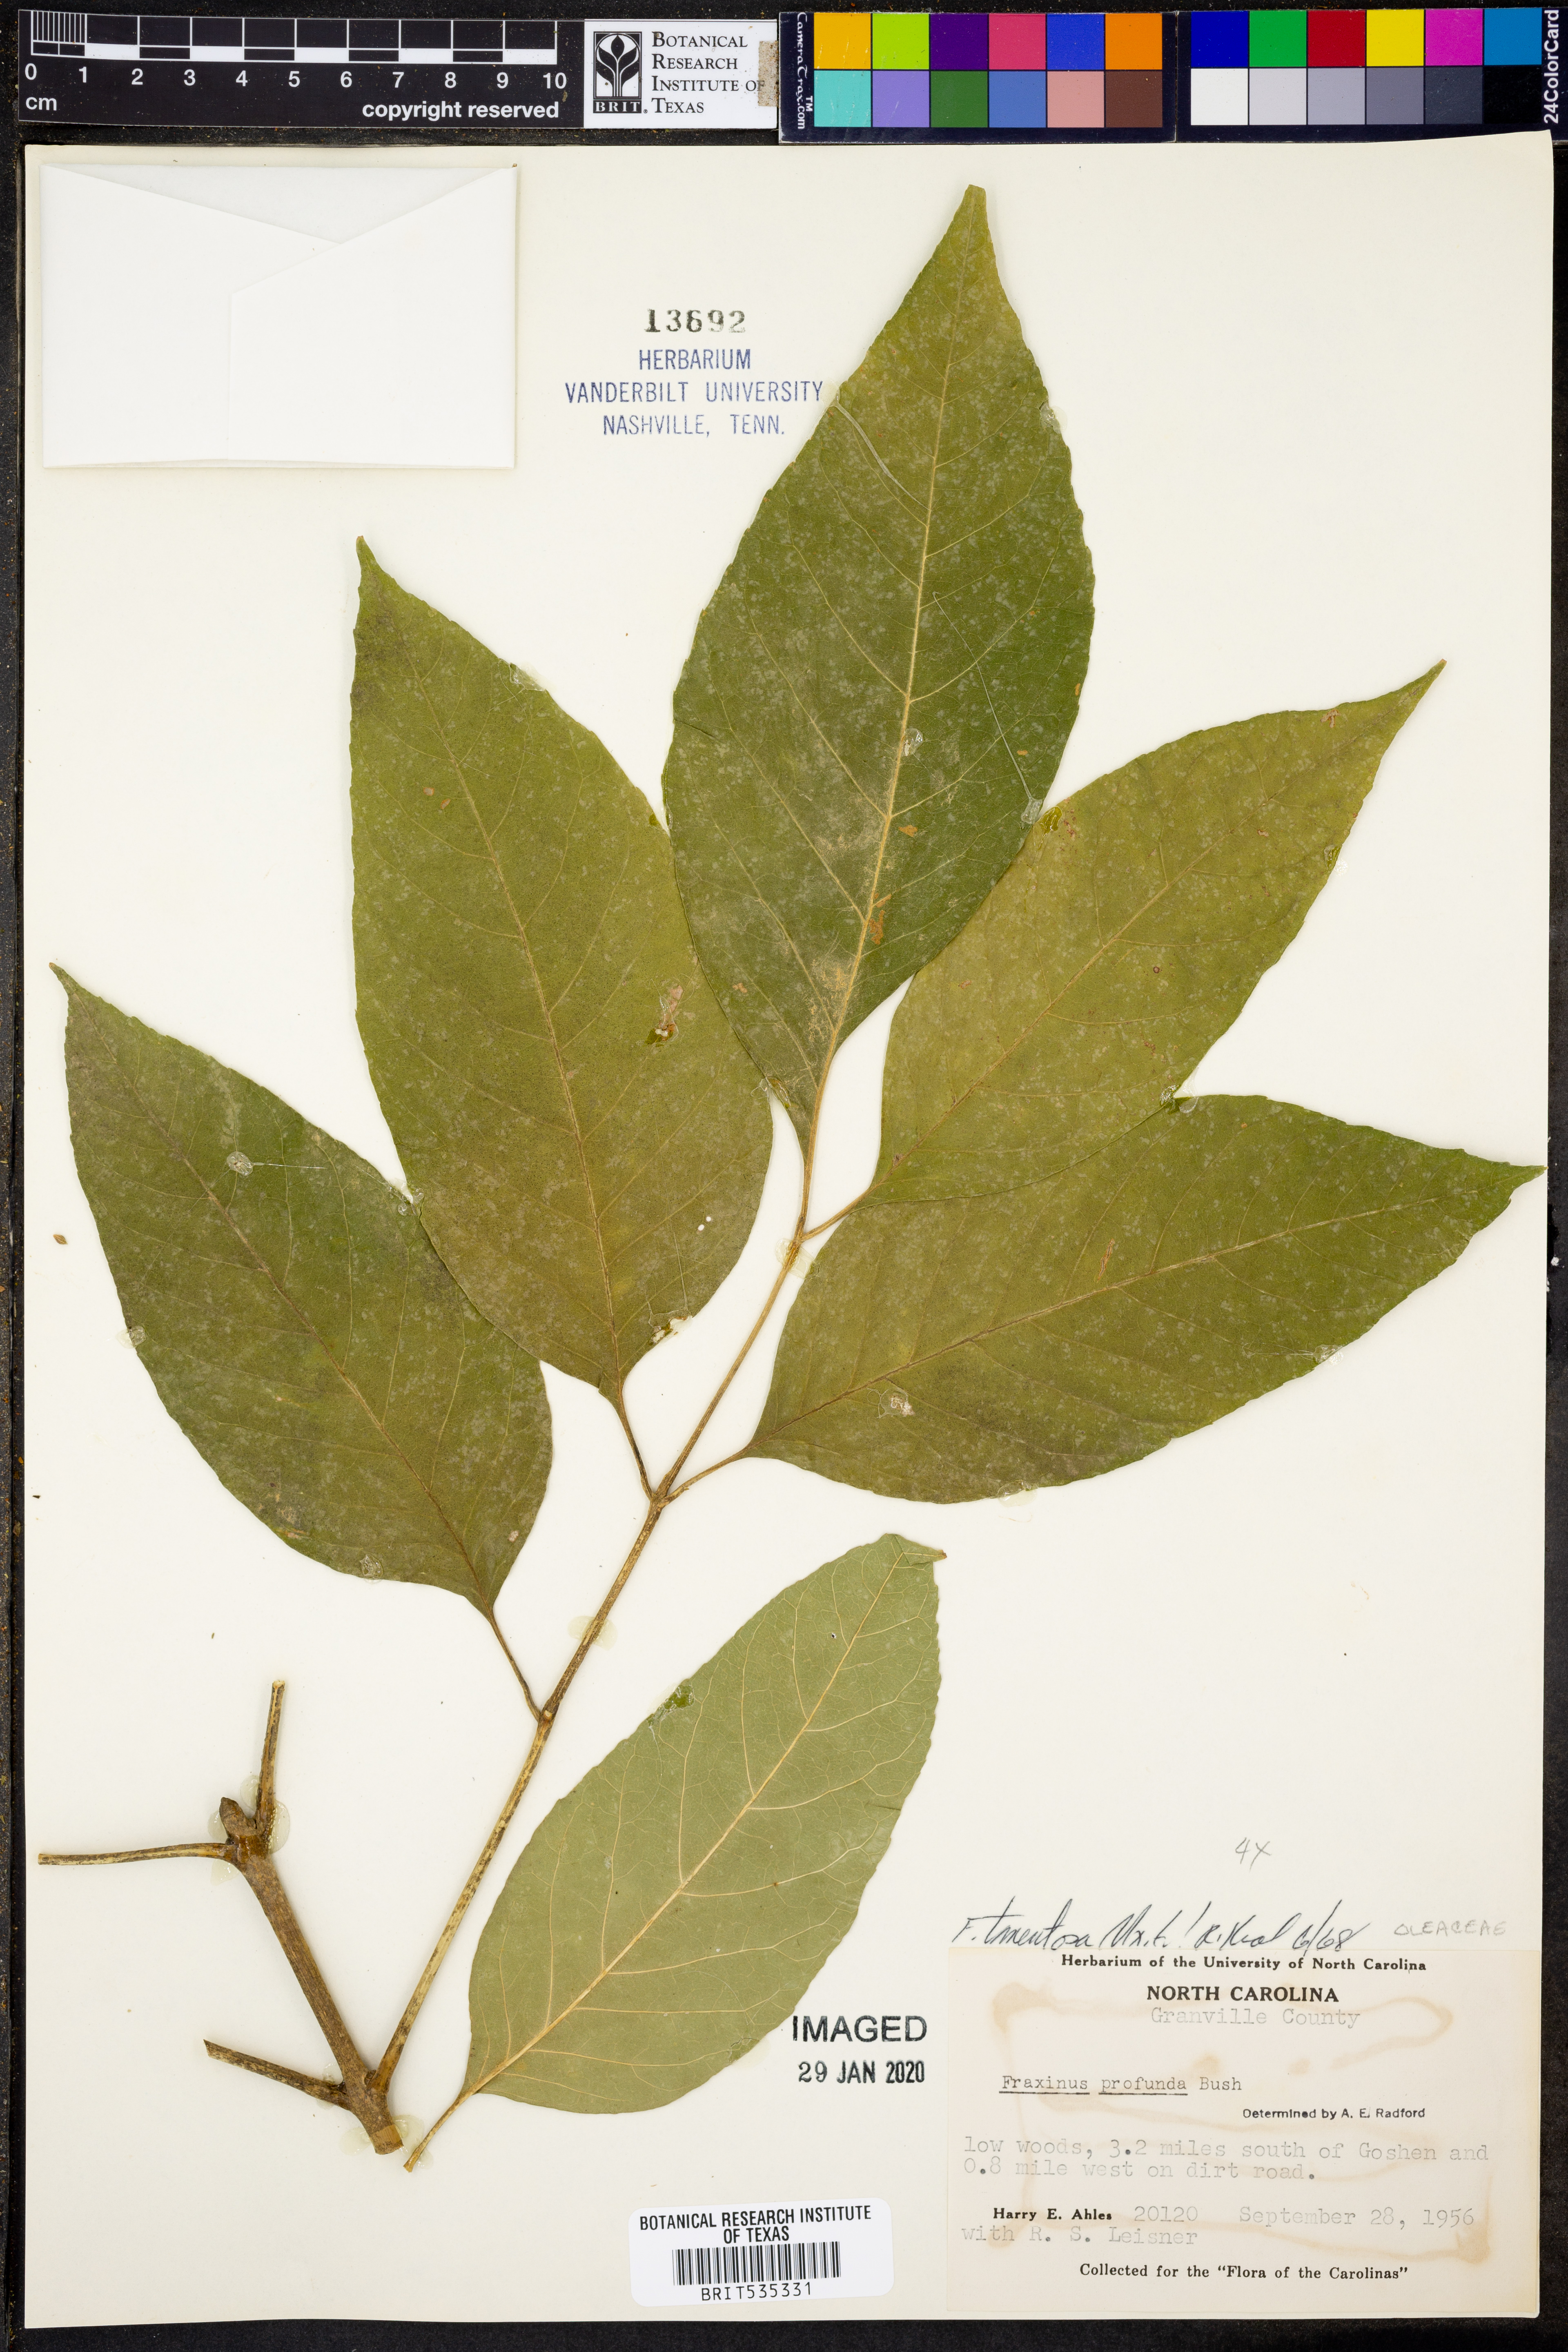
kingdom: Plantae
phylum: Tracheophyta
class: Magnoliopsida
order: Lamiales
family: Oleaceae
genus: Fraxinus
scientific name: Fraxinus profunda
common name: Pumpkin ash
